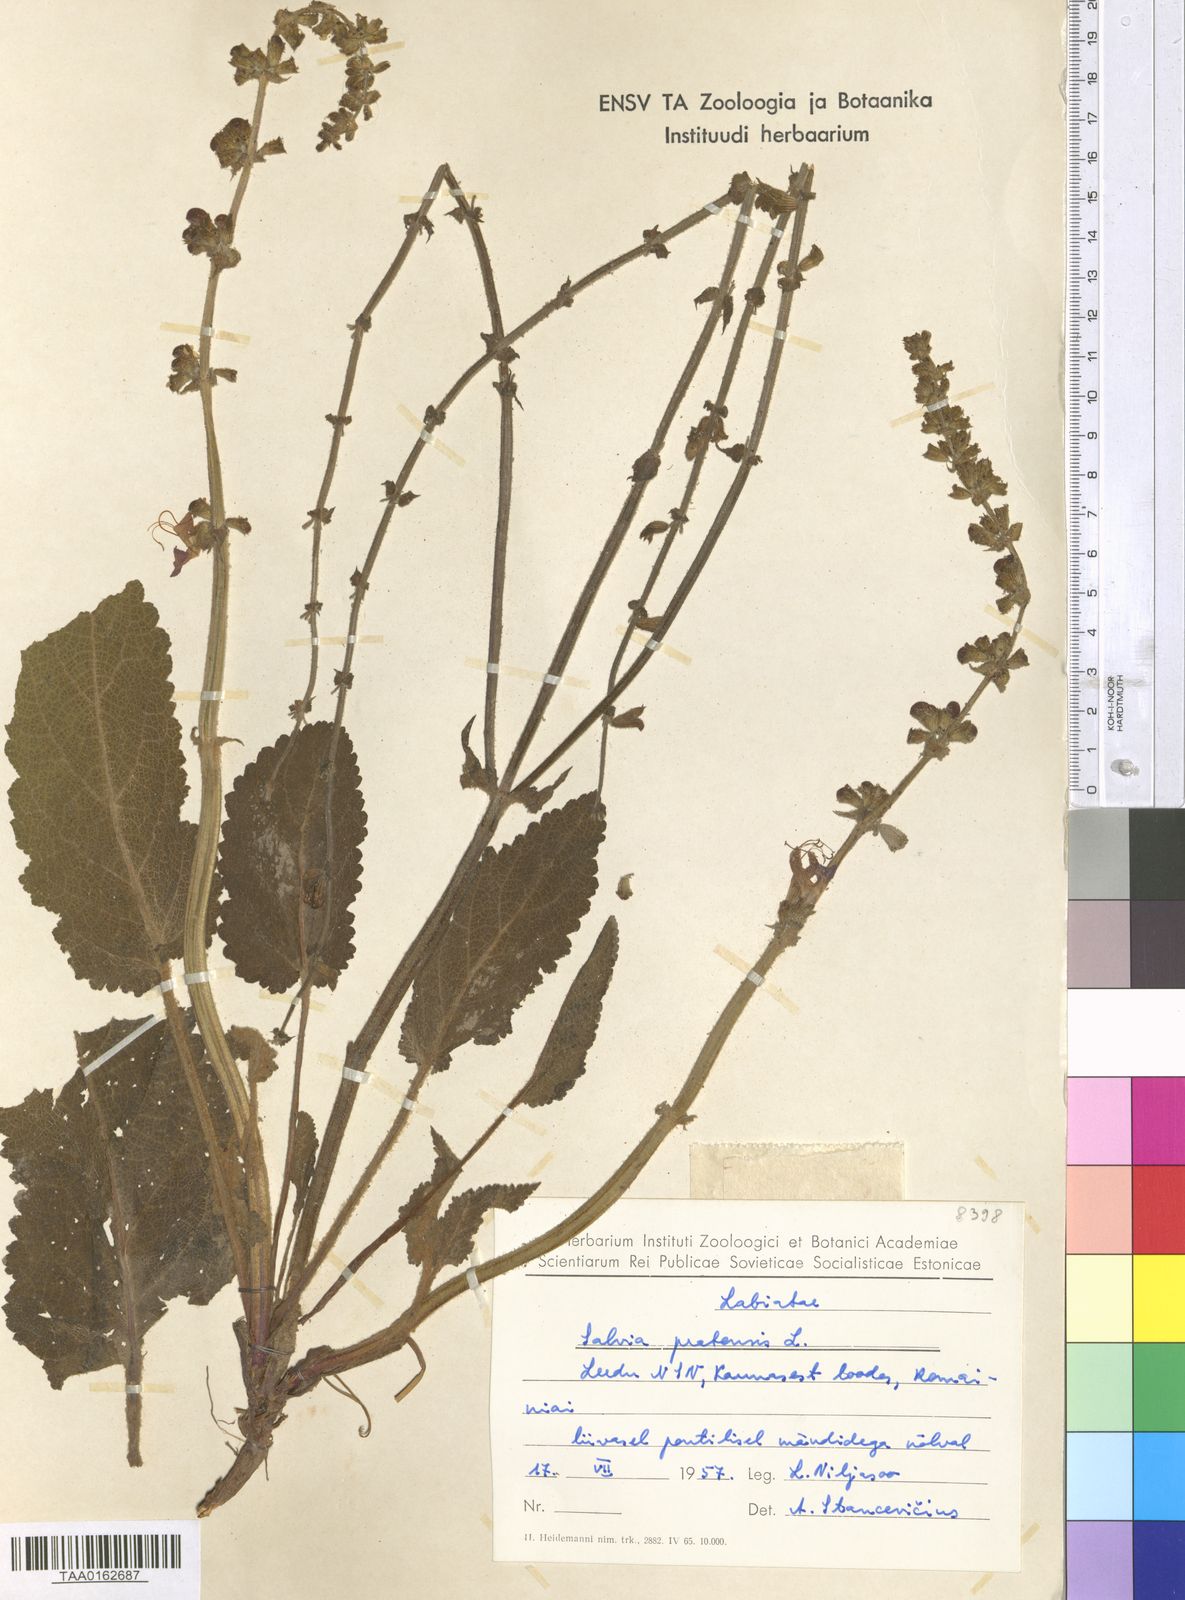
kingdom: Plantae
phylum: Tracheophyta
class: Magnoliopsida
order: Lamiales
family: Lamiaceae
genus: Salvia
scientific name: Salvia pratensis
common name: Meadow sage
